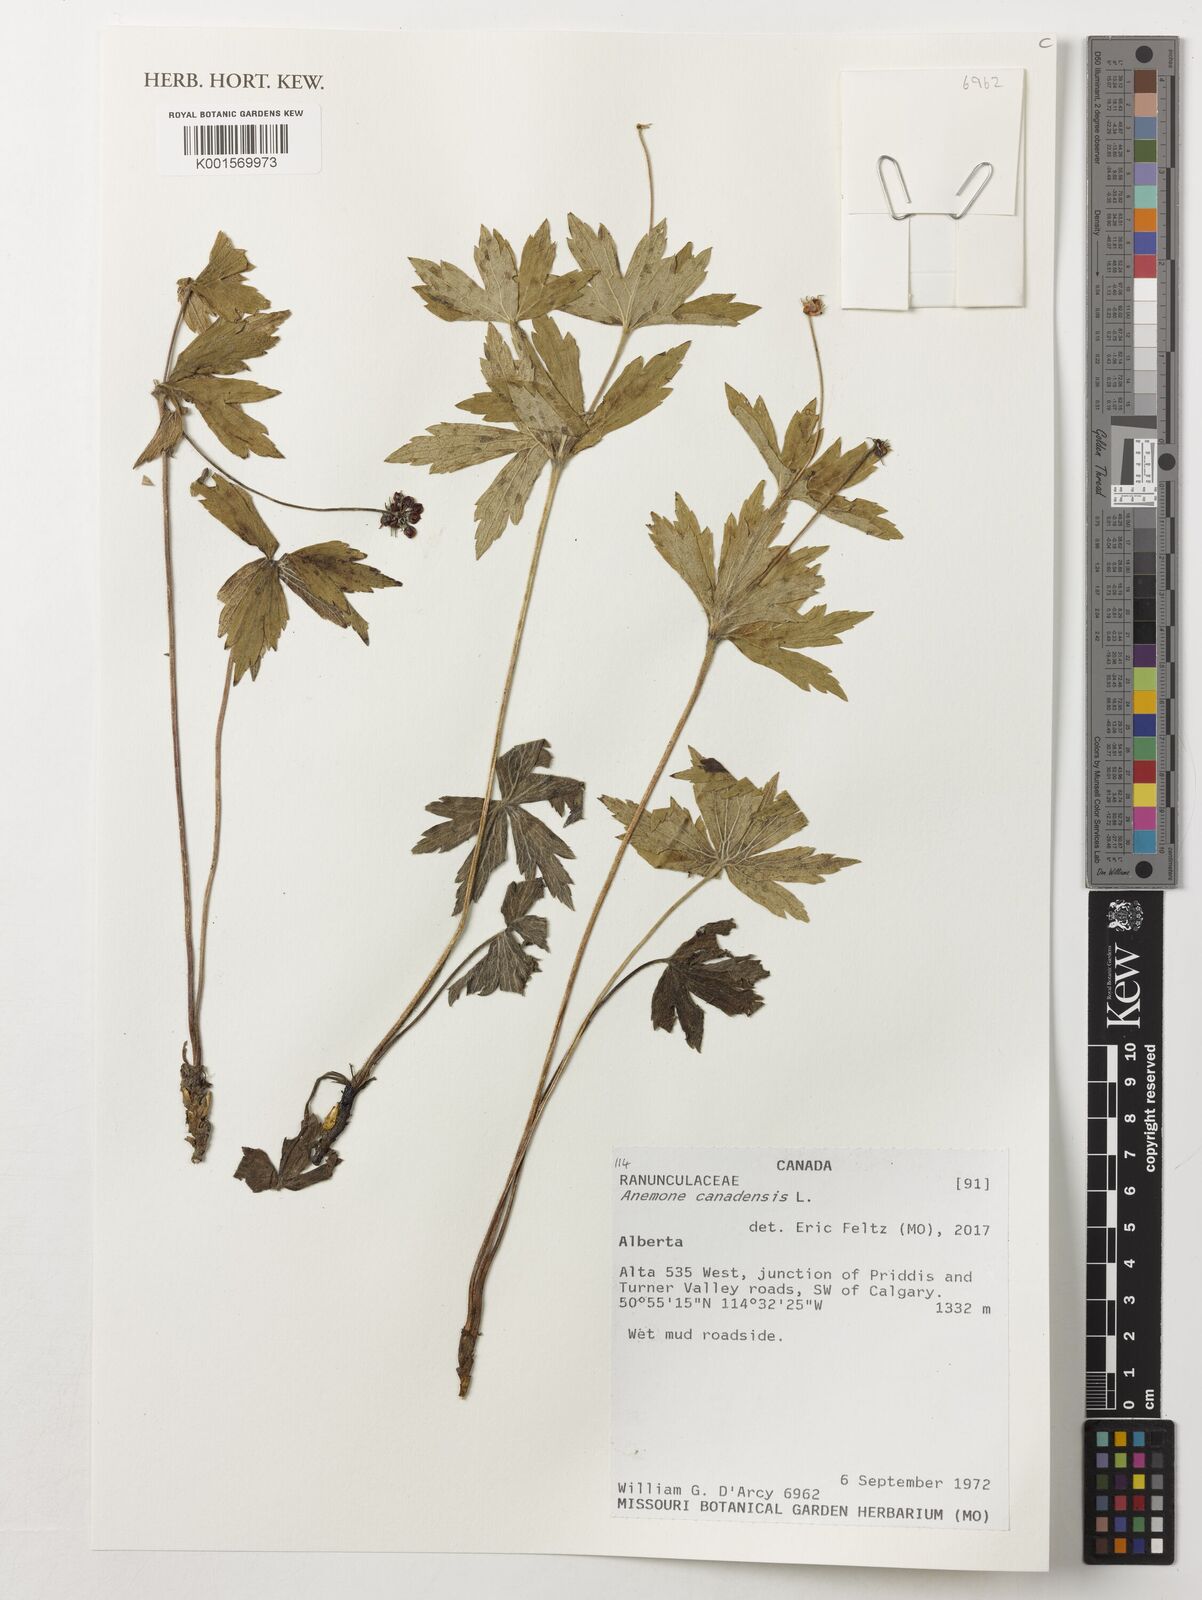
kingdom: Plantae
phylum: Tracheophyta
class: Magnoliopsida
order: Ranunculales
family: Ranunculaceae
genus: Anemonastrum
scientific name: Anemonastrum canadense
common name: Canada anemone
